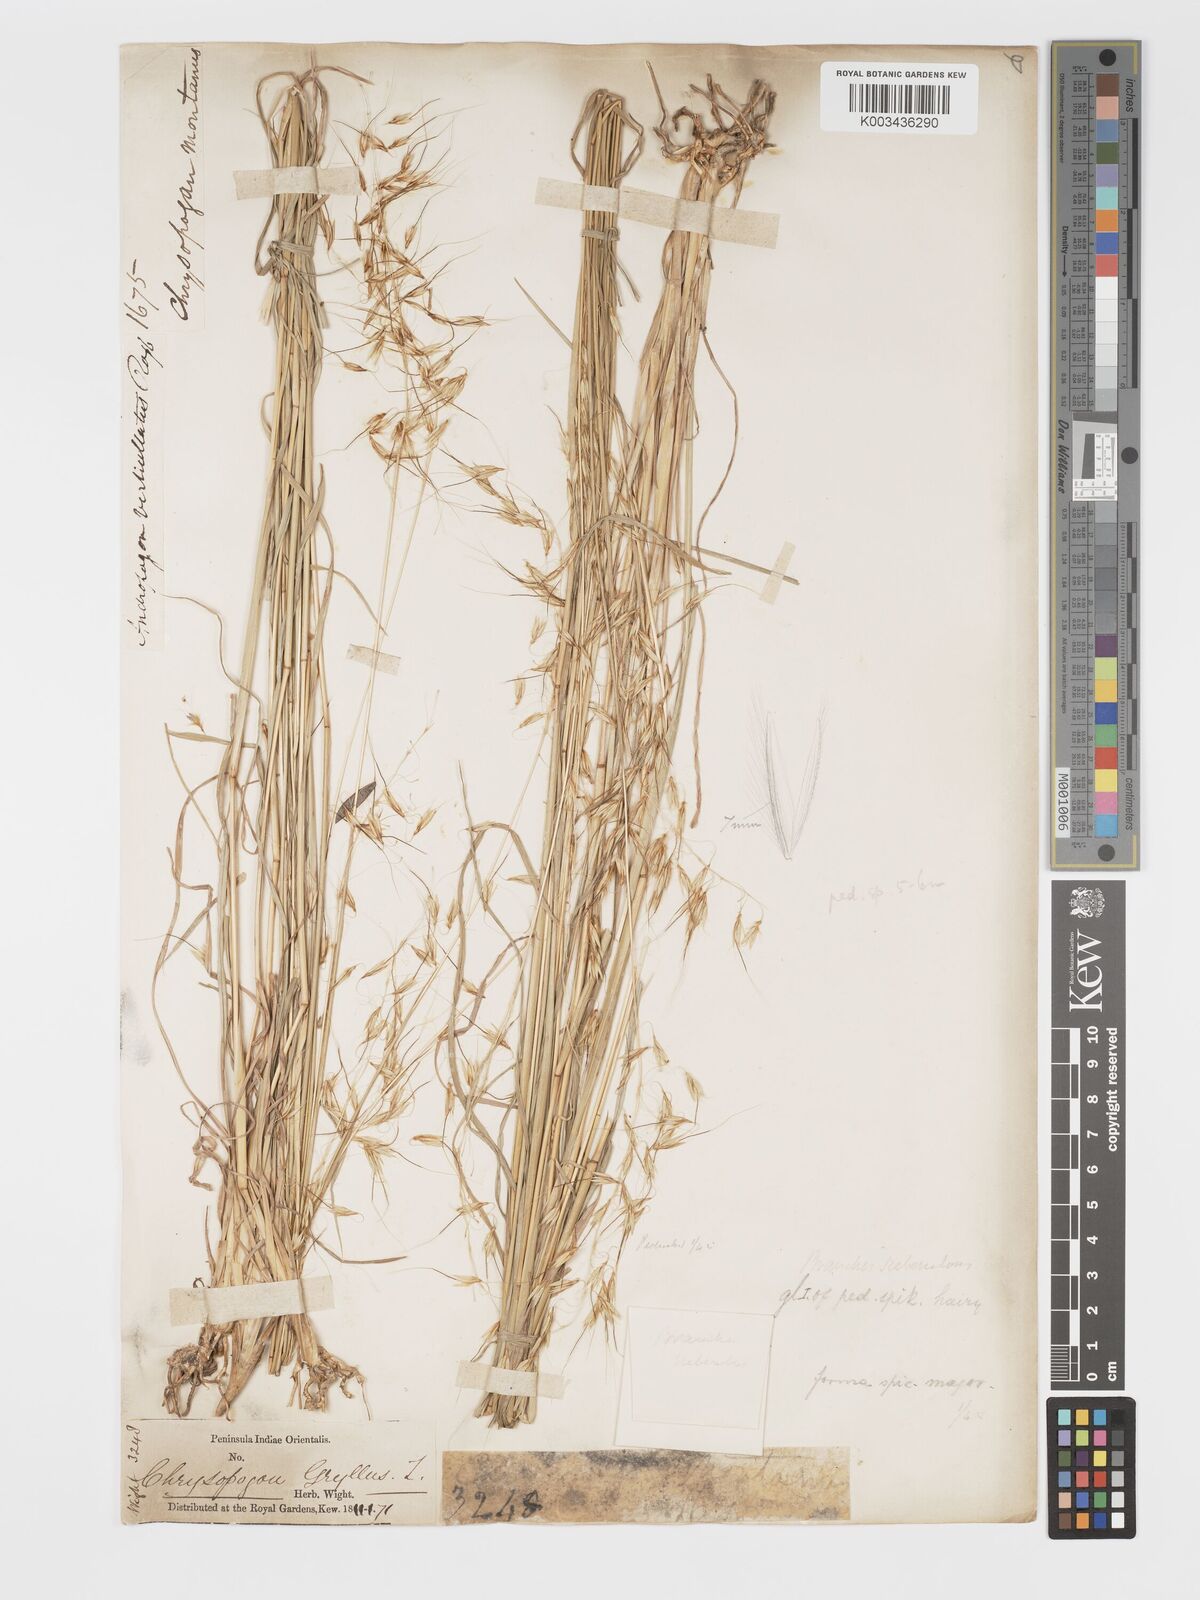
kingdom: Plantae
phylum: Tracheophyta
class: Liliopsida
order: Poales
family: Poaceae
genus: Chrysopogon
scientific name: Chrysopogon fulvus
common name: Red false beardgrass
